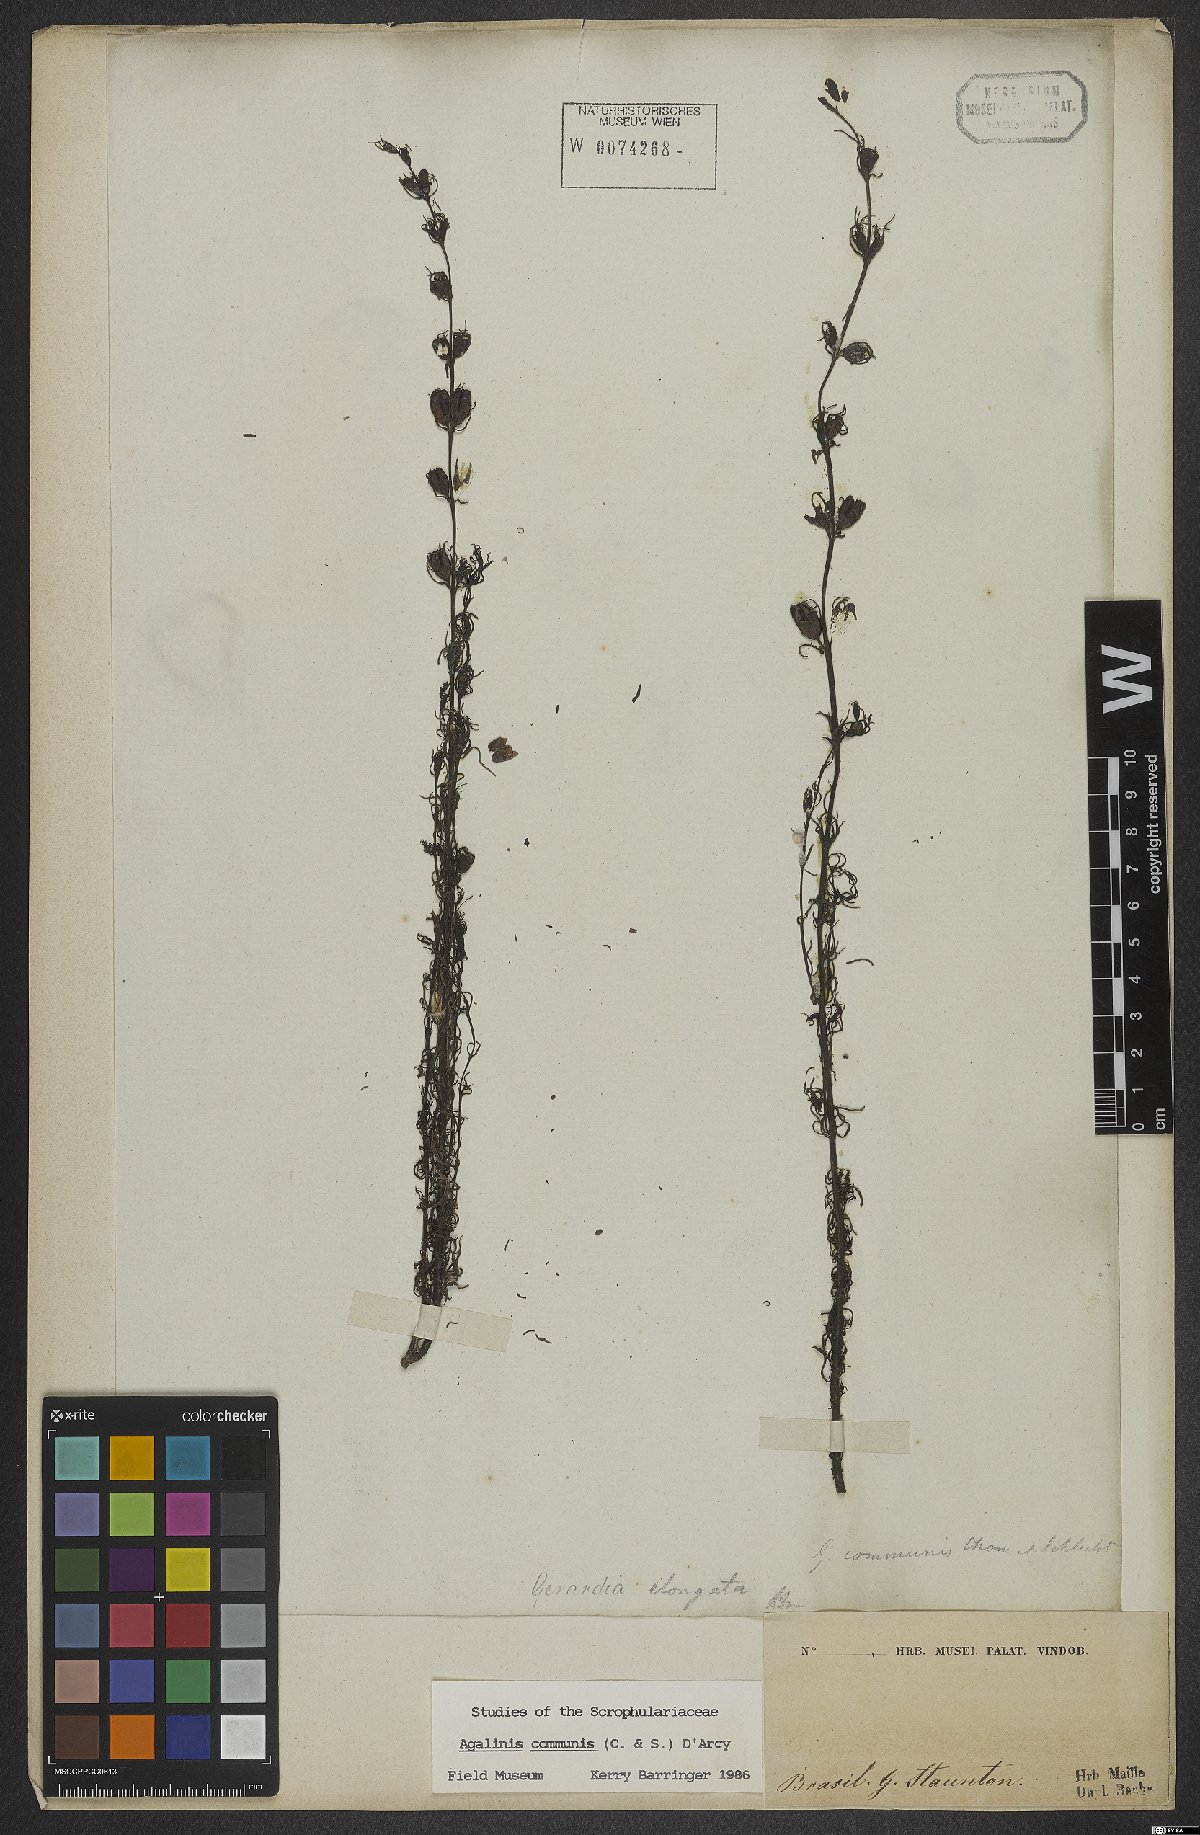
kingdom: Plantae
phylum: Tracheophyta
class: Magnoliopsida
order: Lamiales
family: Scrophulariaceae
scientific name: Scrophulariaceae
